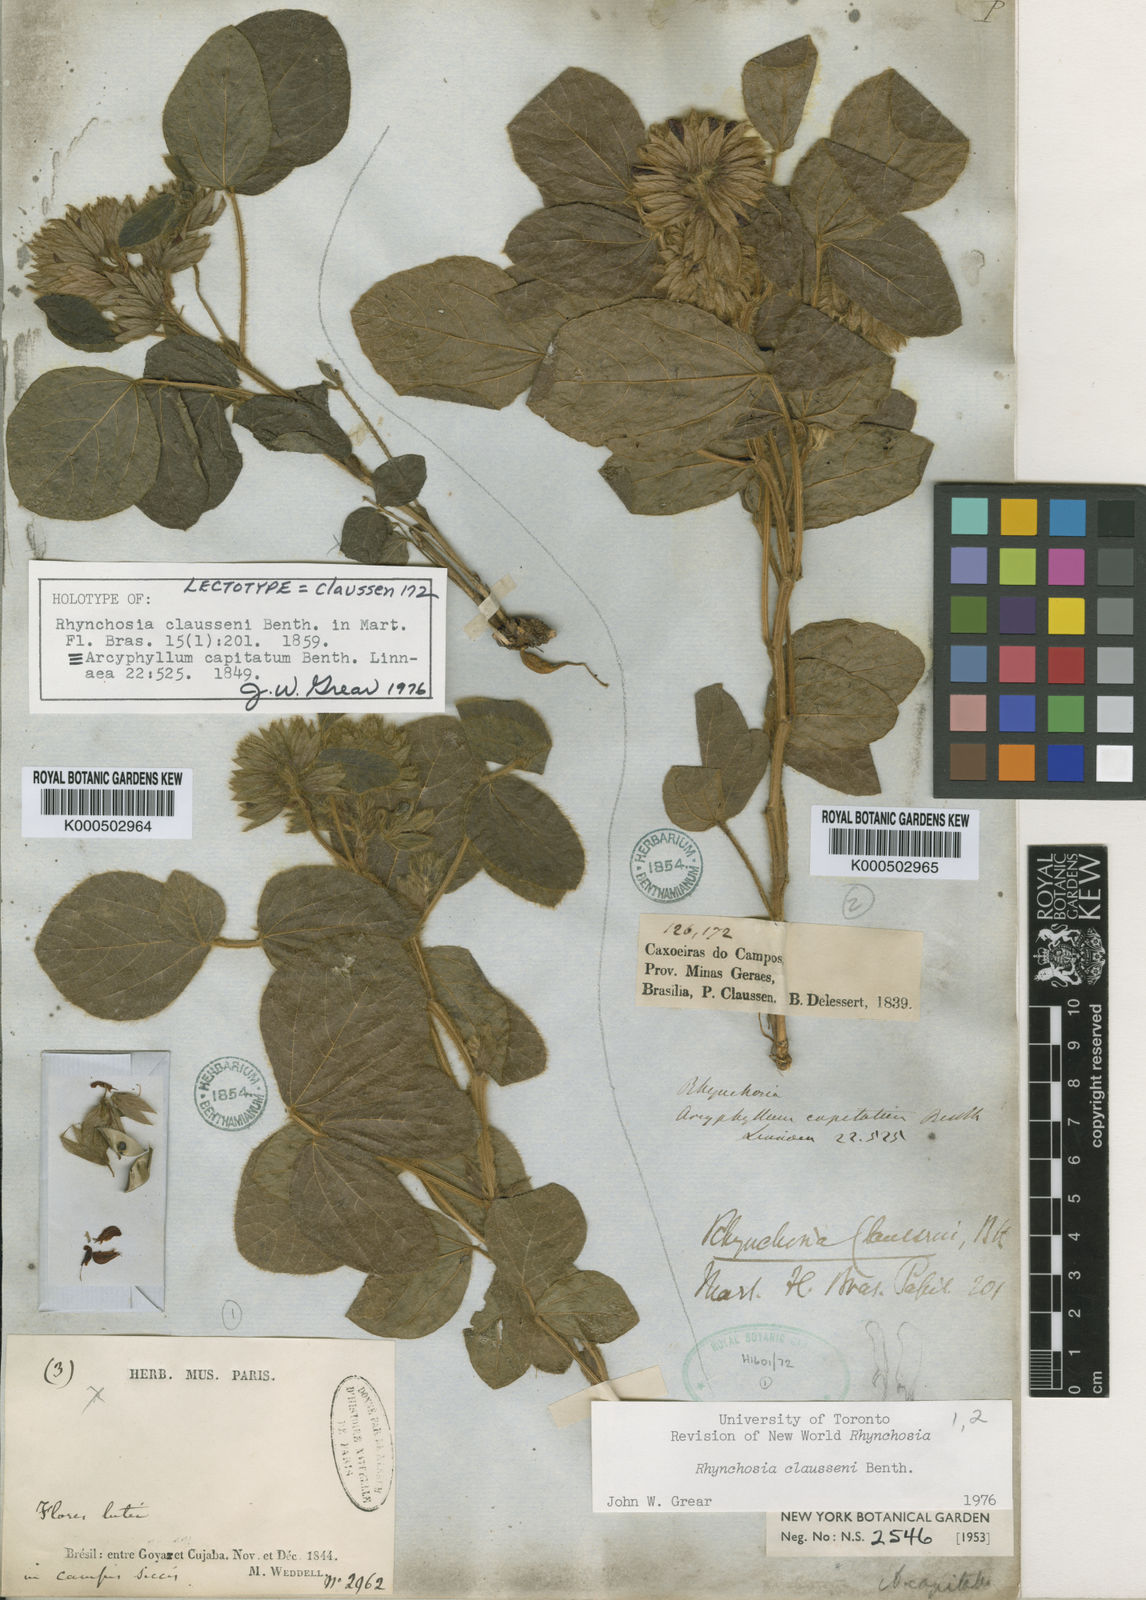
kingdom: Plantae
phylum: Tracheophyta
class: Magnoliopsida
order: Fabales
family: Fabaceae
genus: Rhynchosia
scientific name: Rhynchosia claussenii
